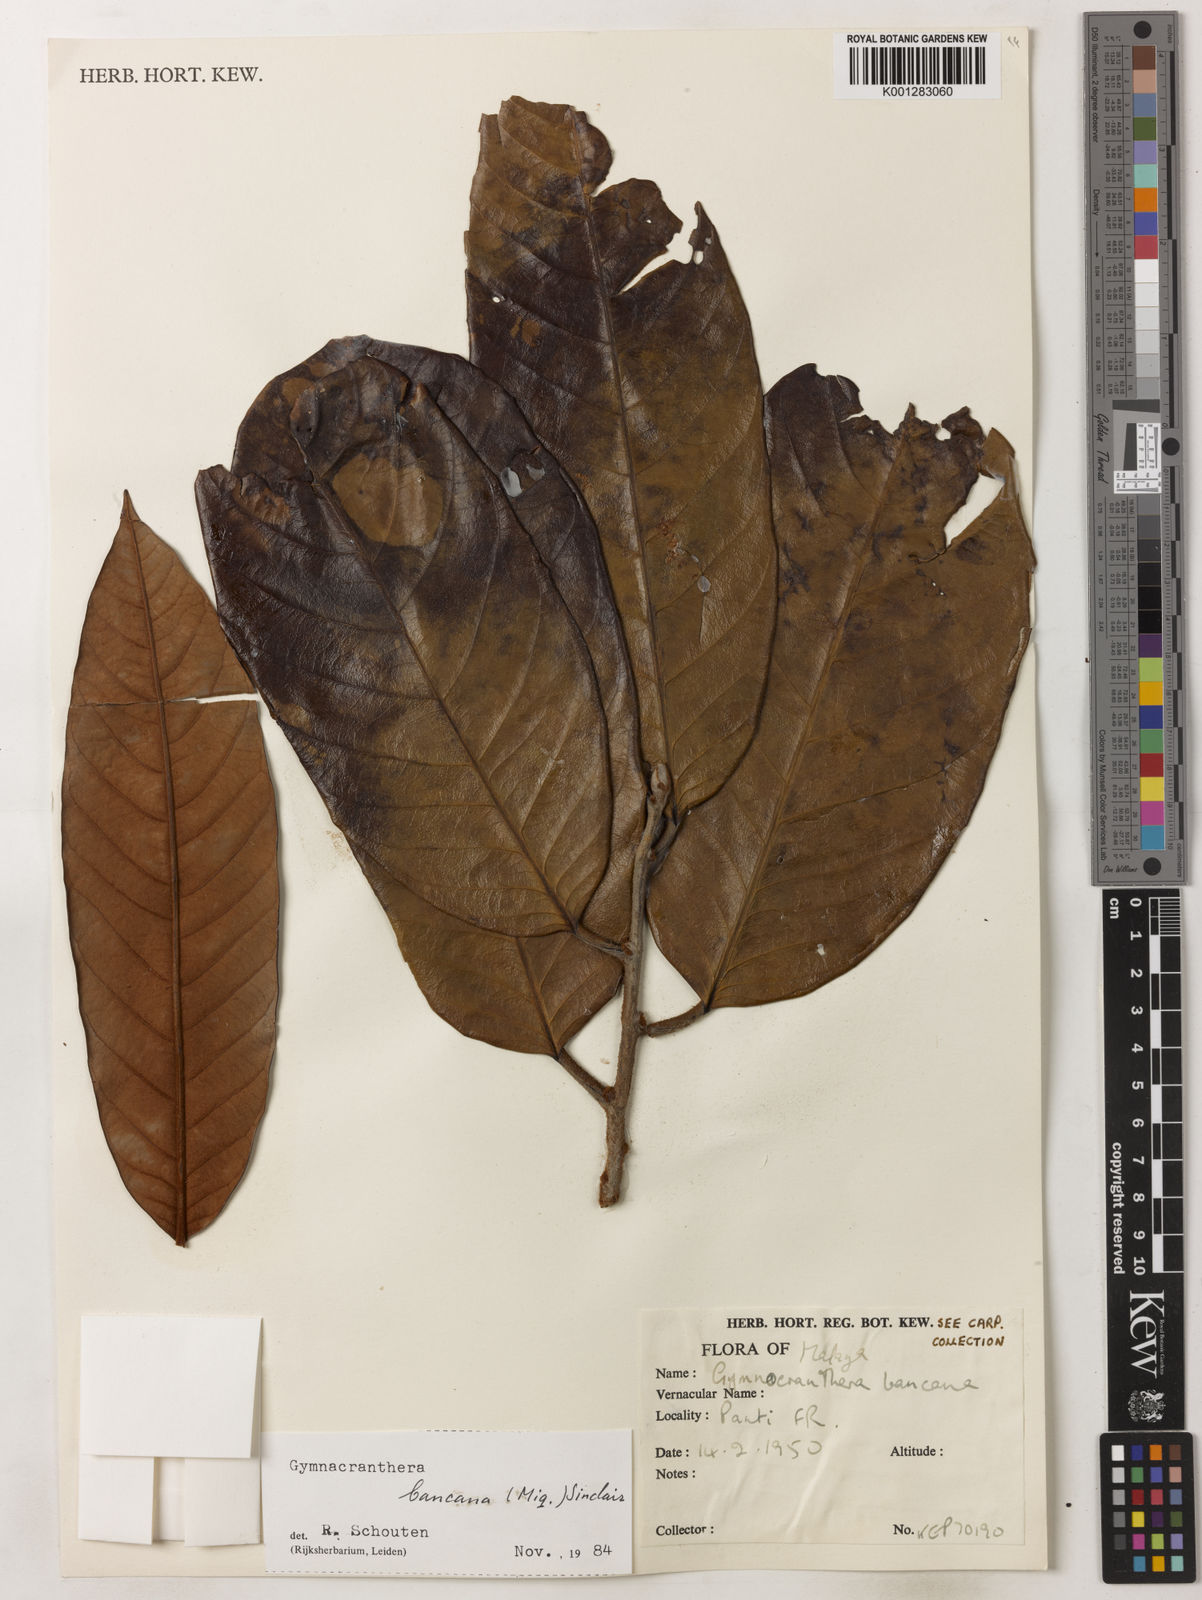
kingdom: Plantae
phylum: Tracheophyta
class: Magnoliopsida
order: Magnoliales
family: Myristicaceae
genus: Gymnacranthera
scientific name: Gymnacranthera bancana
